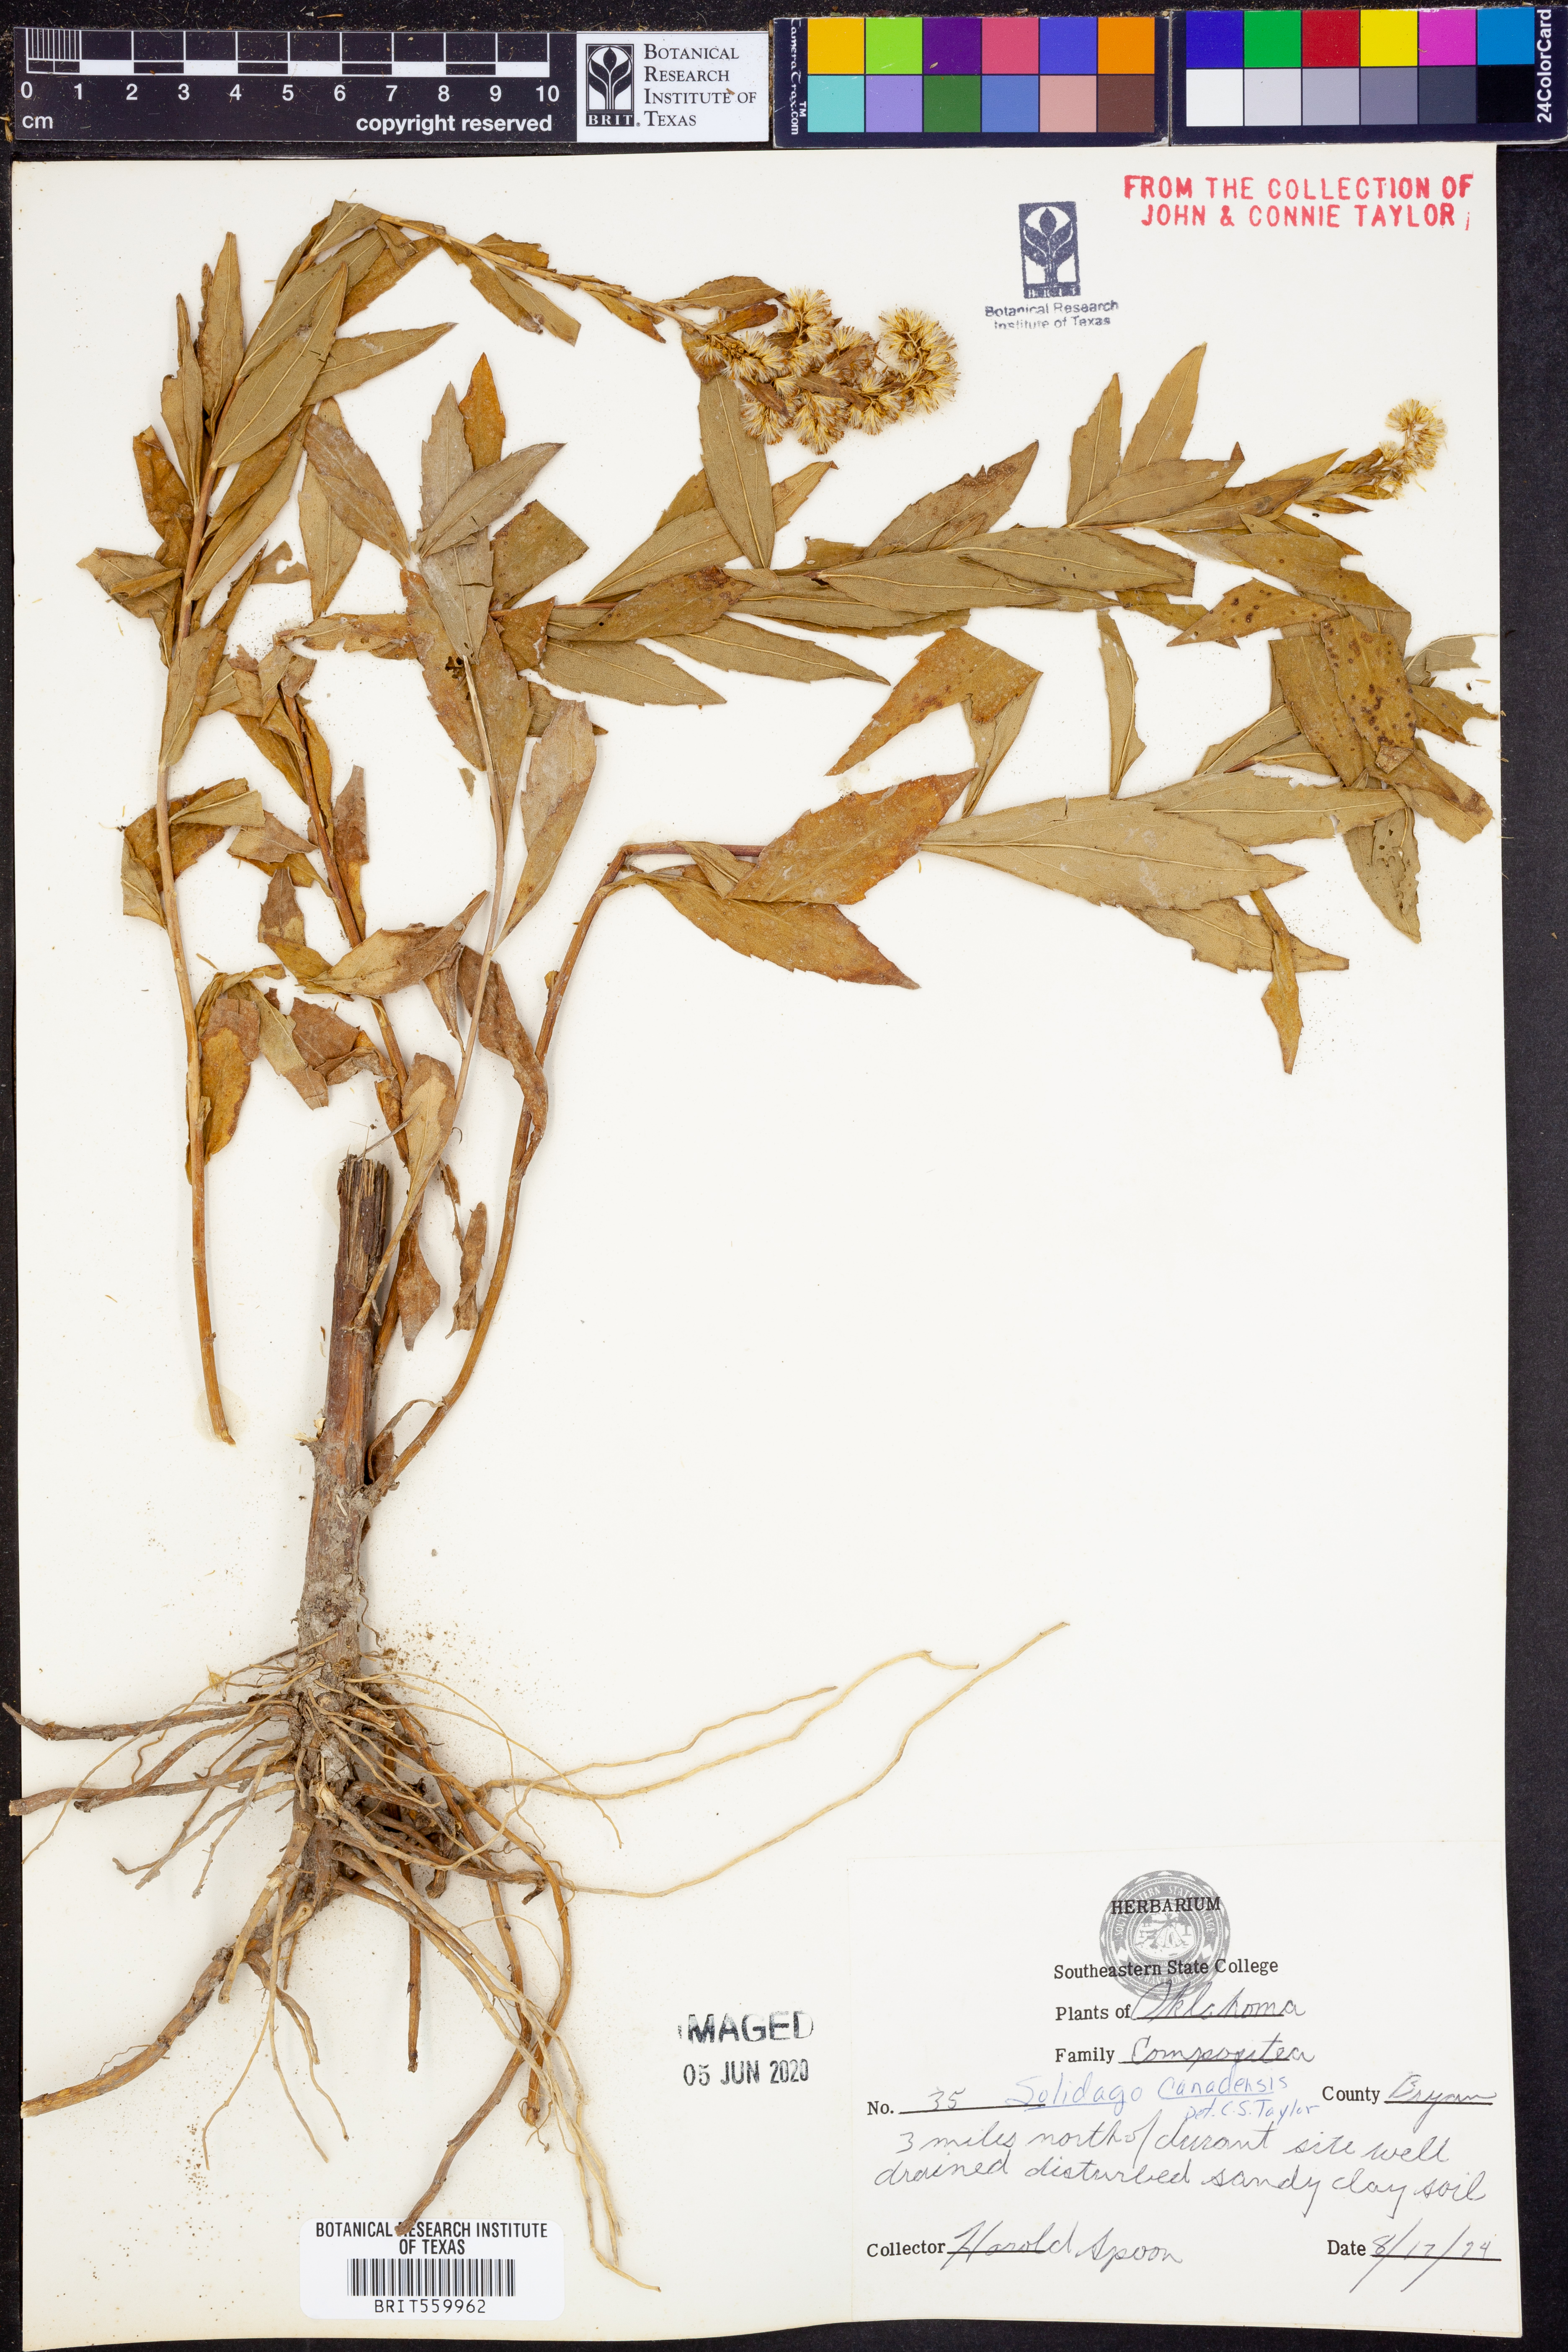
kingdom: Plantae
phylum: Tracheophyta
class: Magnoliopsida
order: Asterales
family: Asteraceae
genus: Solidago
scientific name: Solidago canadensis
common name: Canada goldenrod
